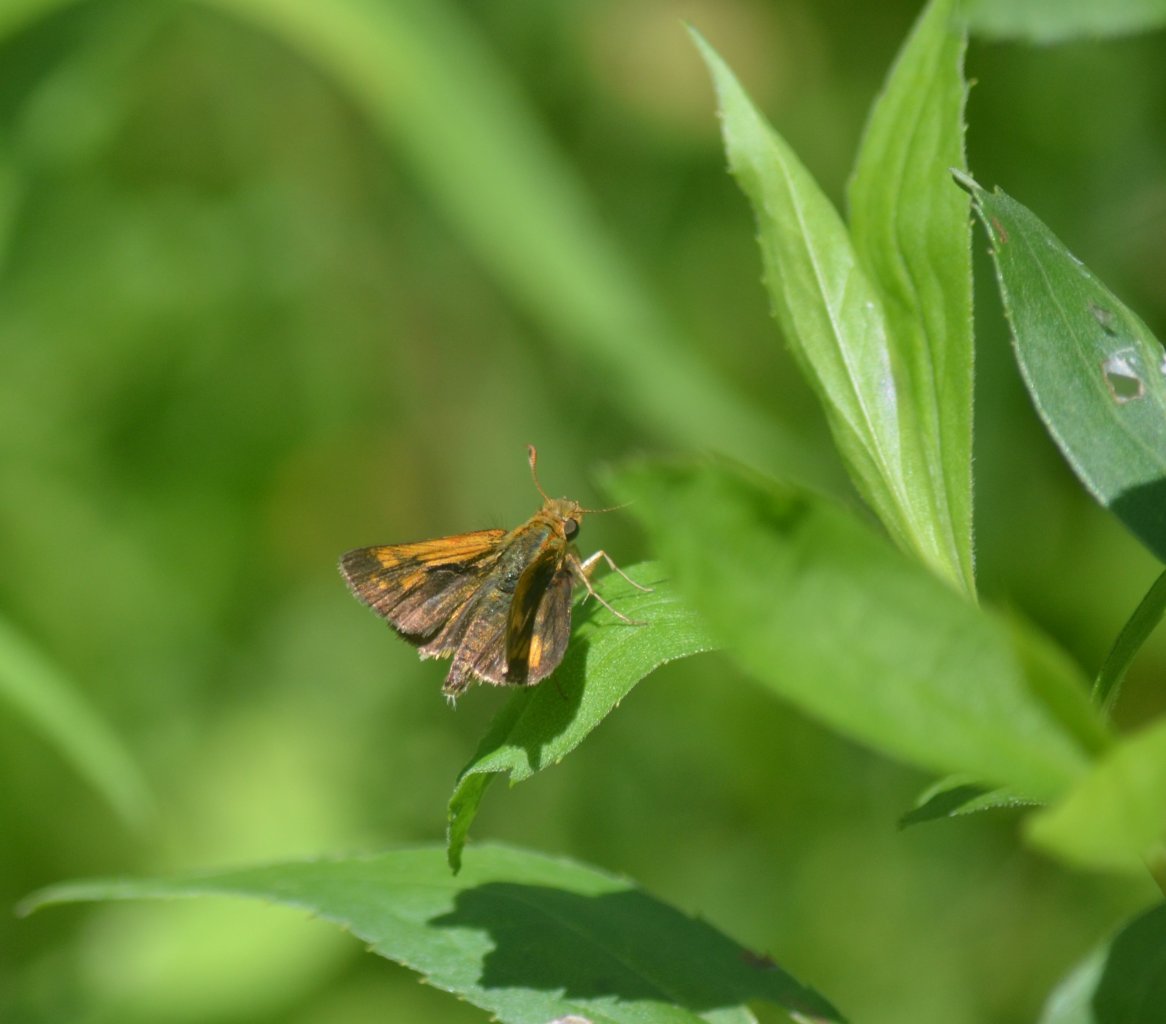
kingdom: Animalia
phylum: Arthropoda
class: Insecta
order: Lepidoptera
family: Hesperiidae
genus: Polites
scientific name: Polites coras
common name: Peck's Skipper
